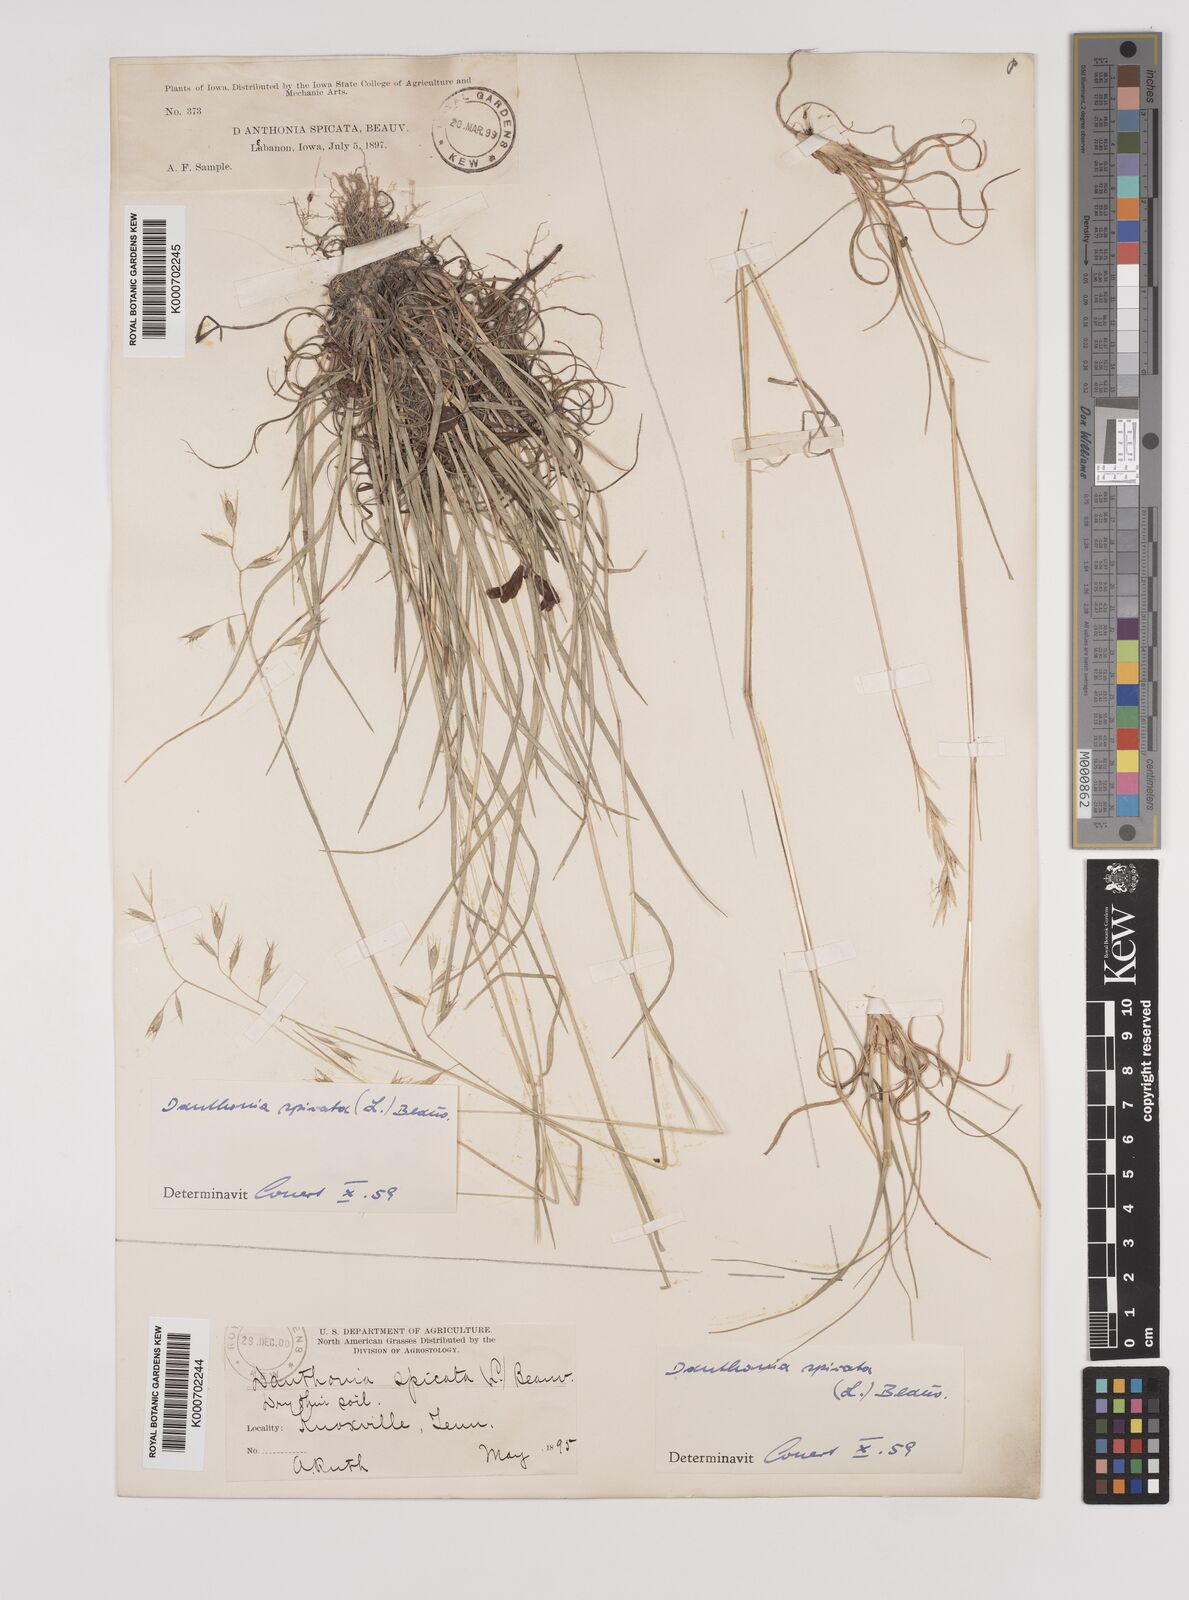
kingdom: Plantae
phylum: Tracheophyta
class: Liliopsida
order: Poales
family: Poaceae
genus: Danthonia
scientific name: Danthonia spicata
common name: Common wild oatgrass
